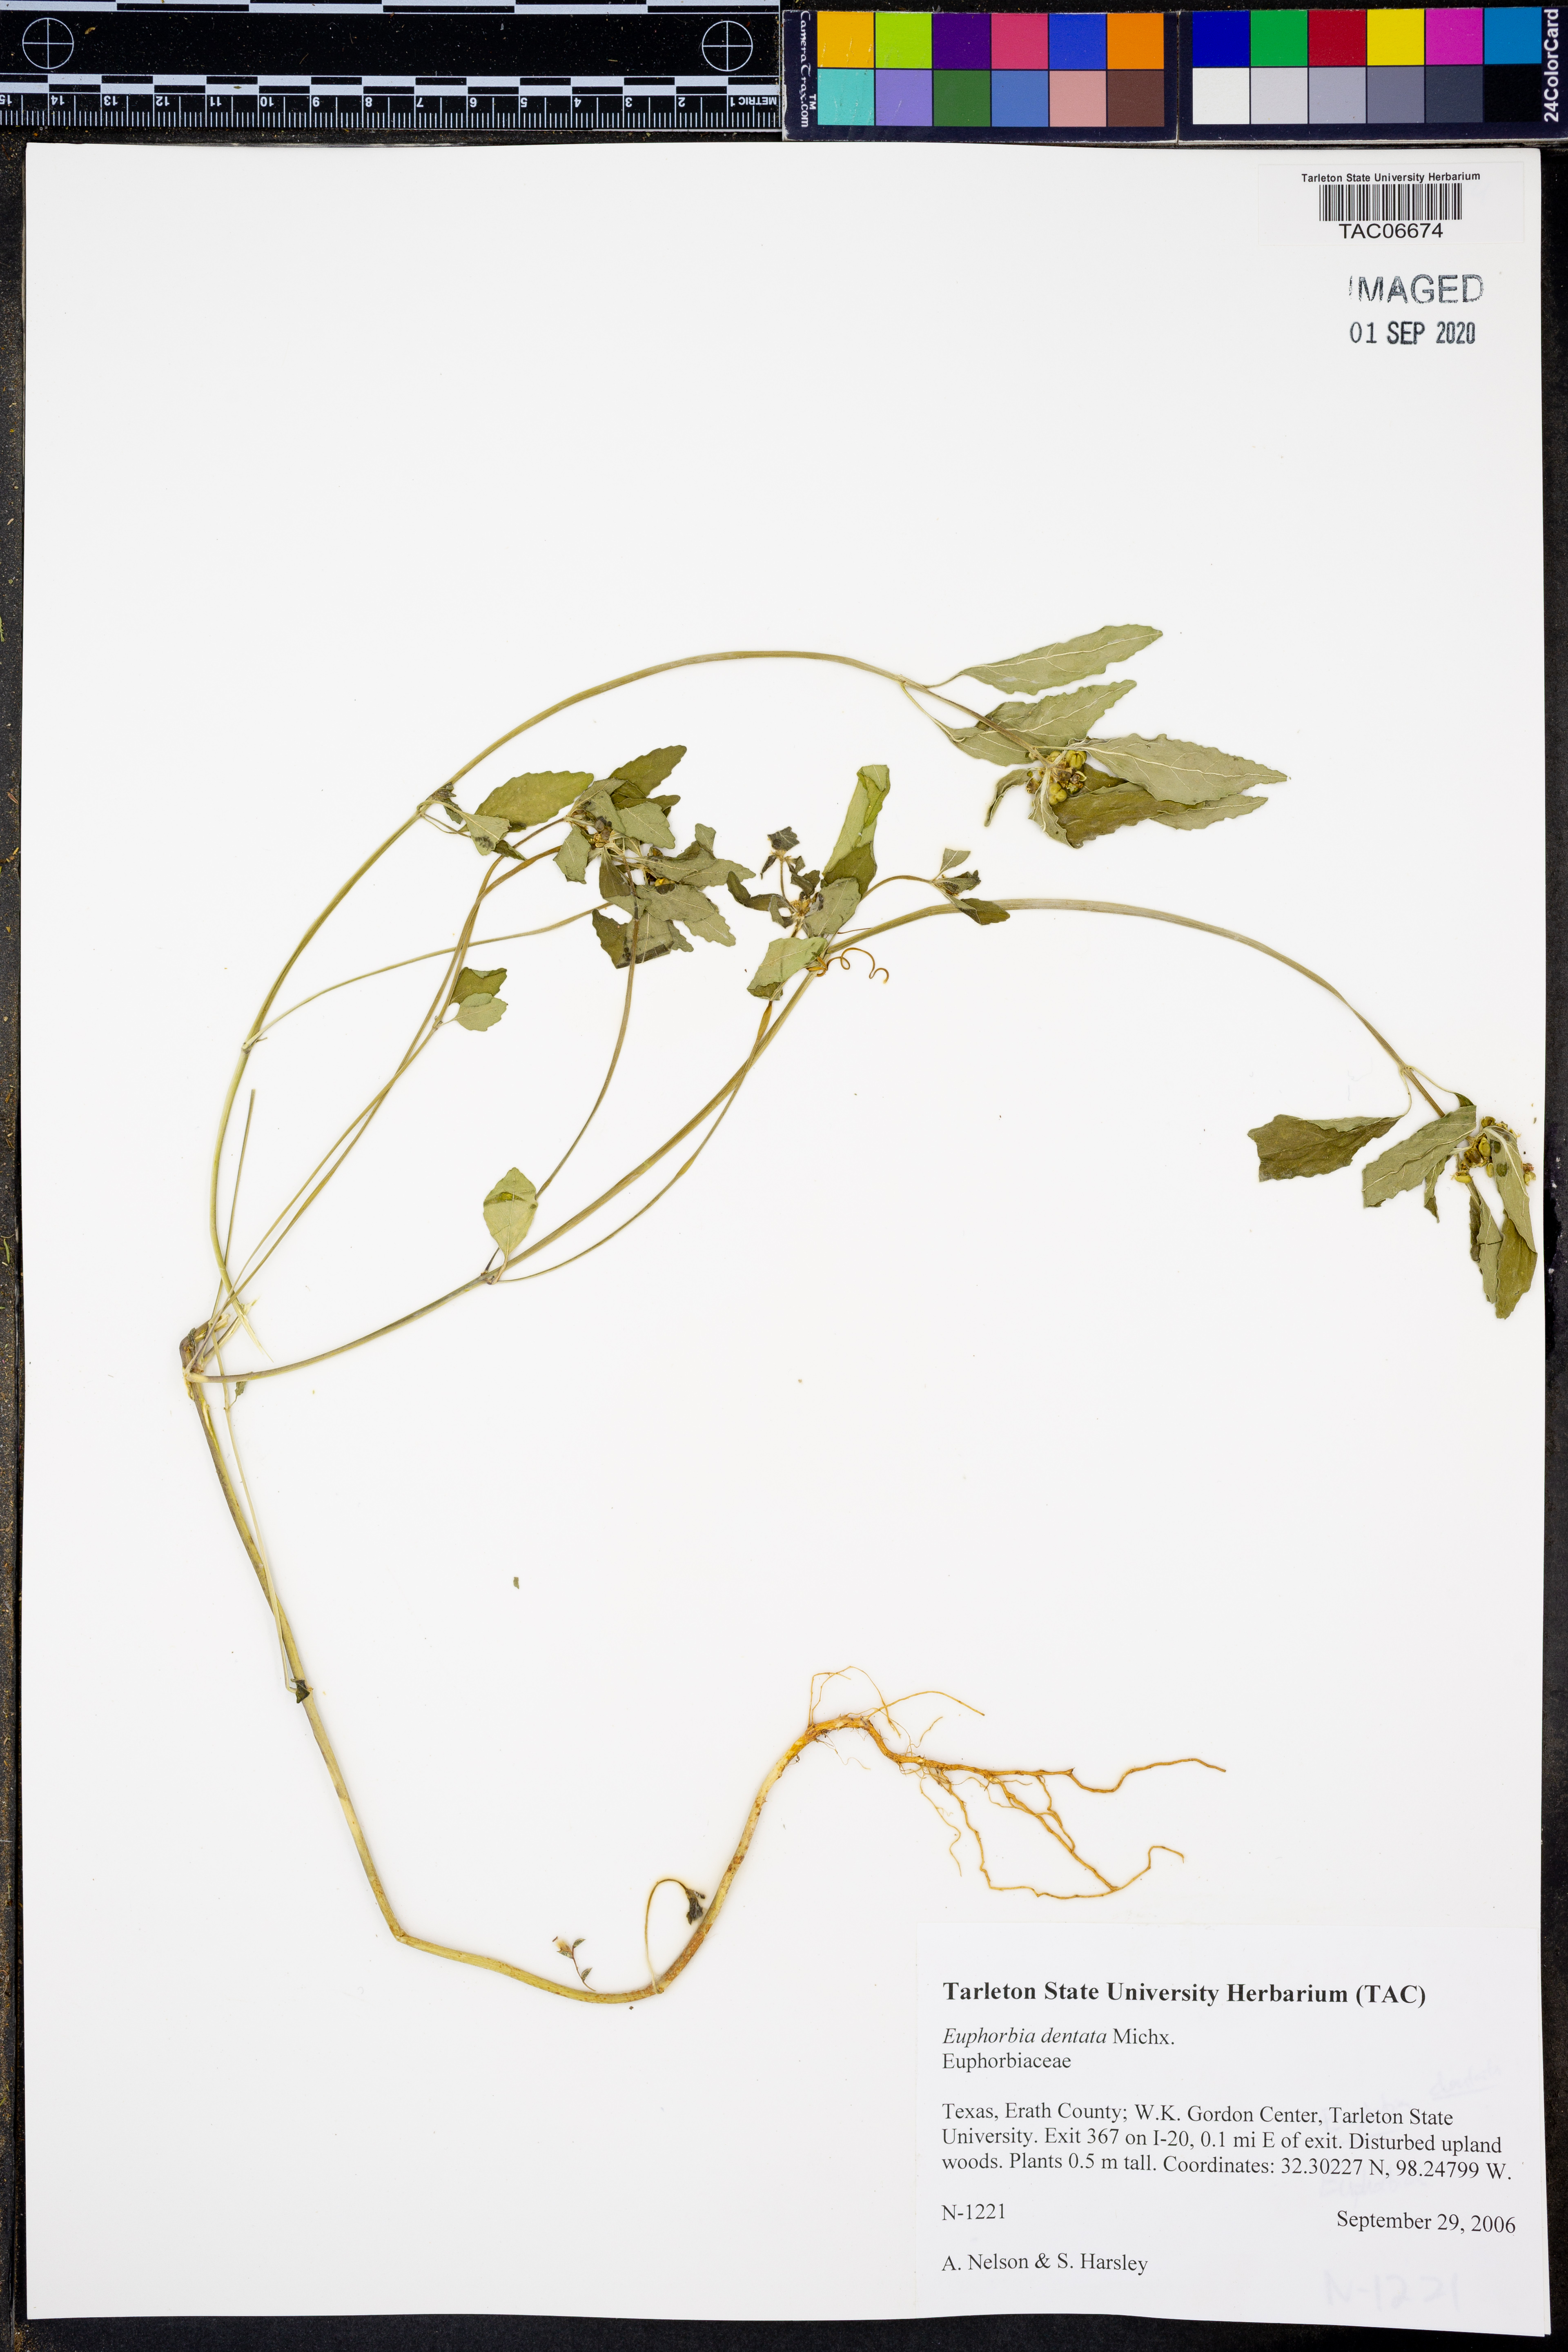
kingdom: Plantae
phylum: Tracheophyta
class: Magnoliopsida
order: Malpighiales
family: Euphorbiaceae
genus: Euphorbia
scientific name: Euphorbia dentata
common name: Dentate spurge
